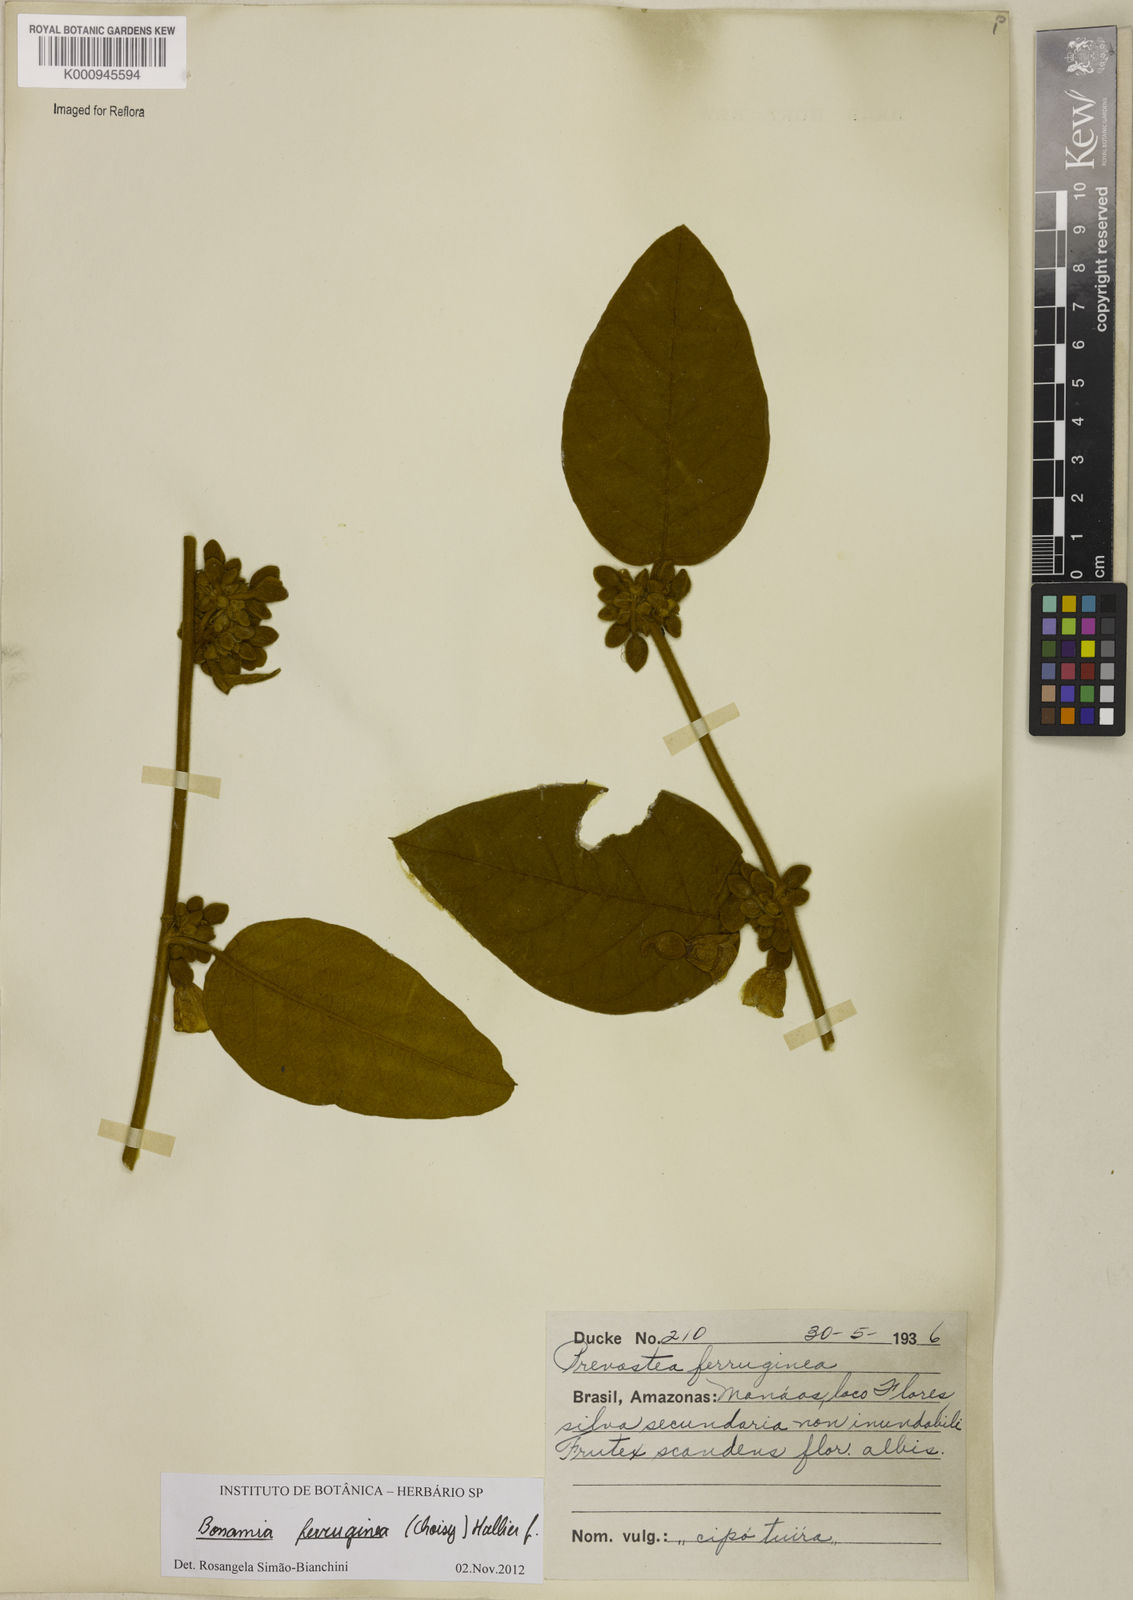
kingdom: Plantae
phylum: Tracheophyta
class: Magnoliopsida
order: Solanales
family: Convolvulaceae
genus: Bonamia
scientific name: Bonamia ferruginea
